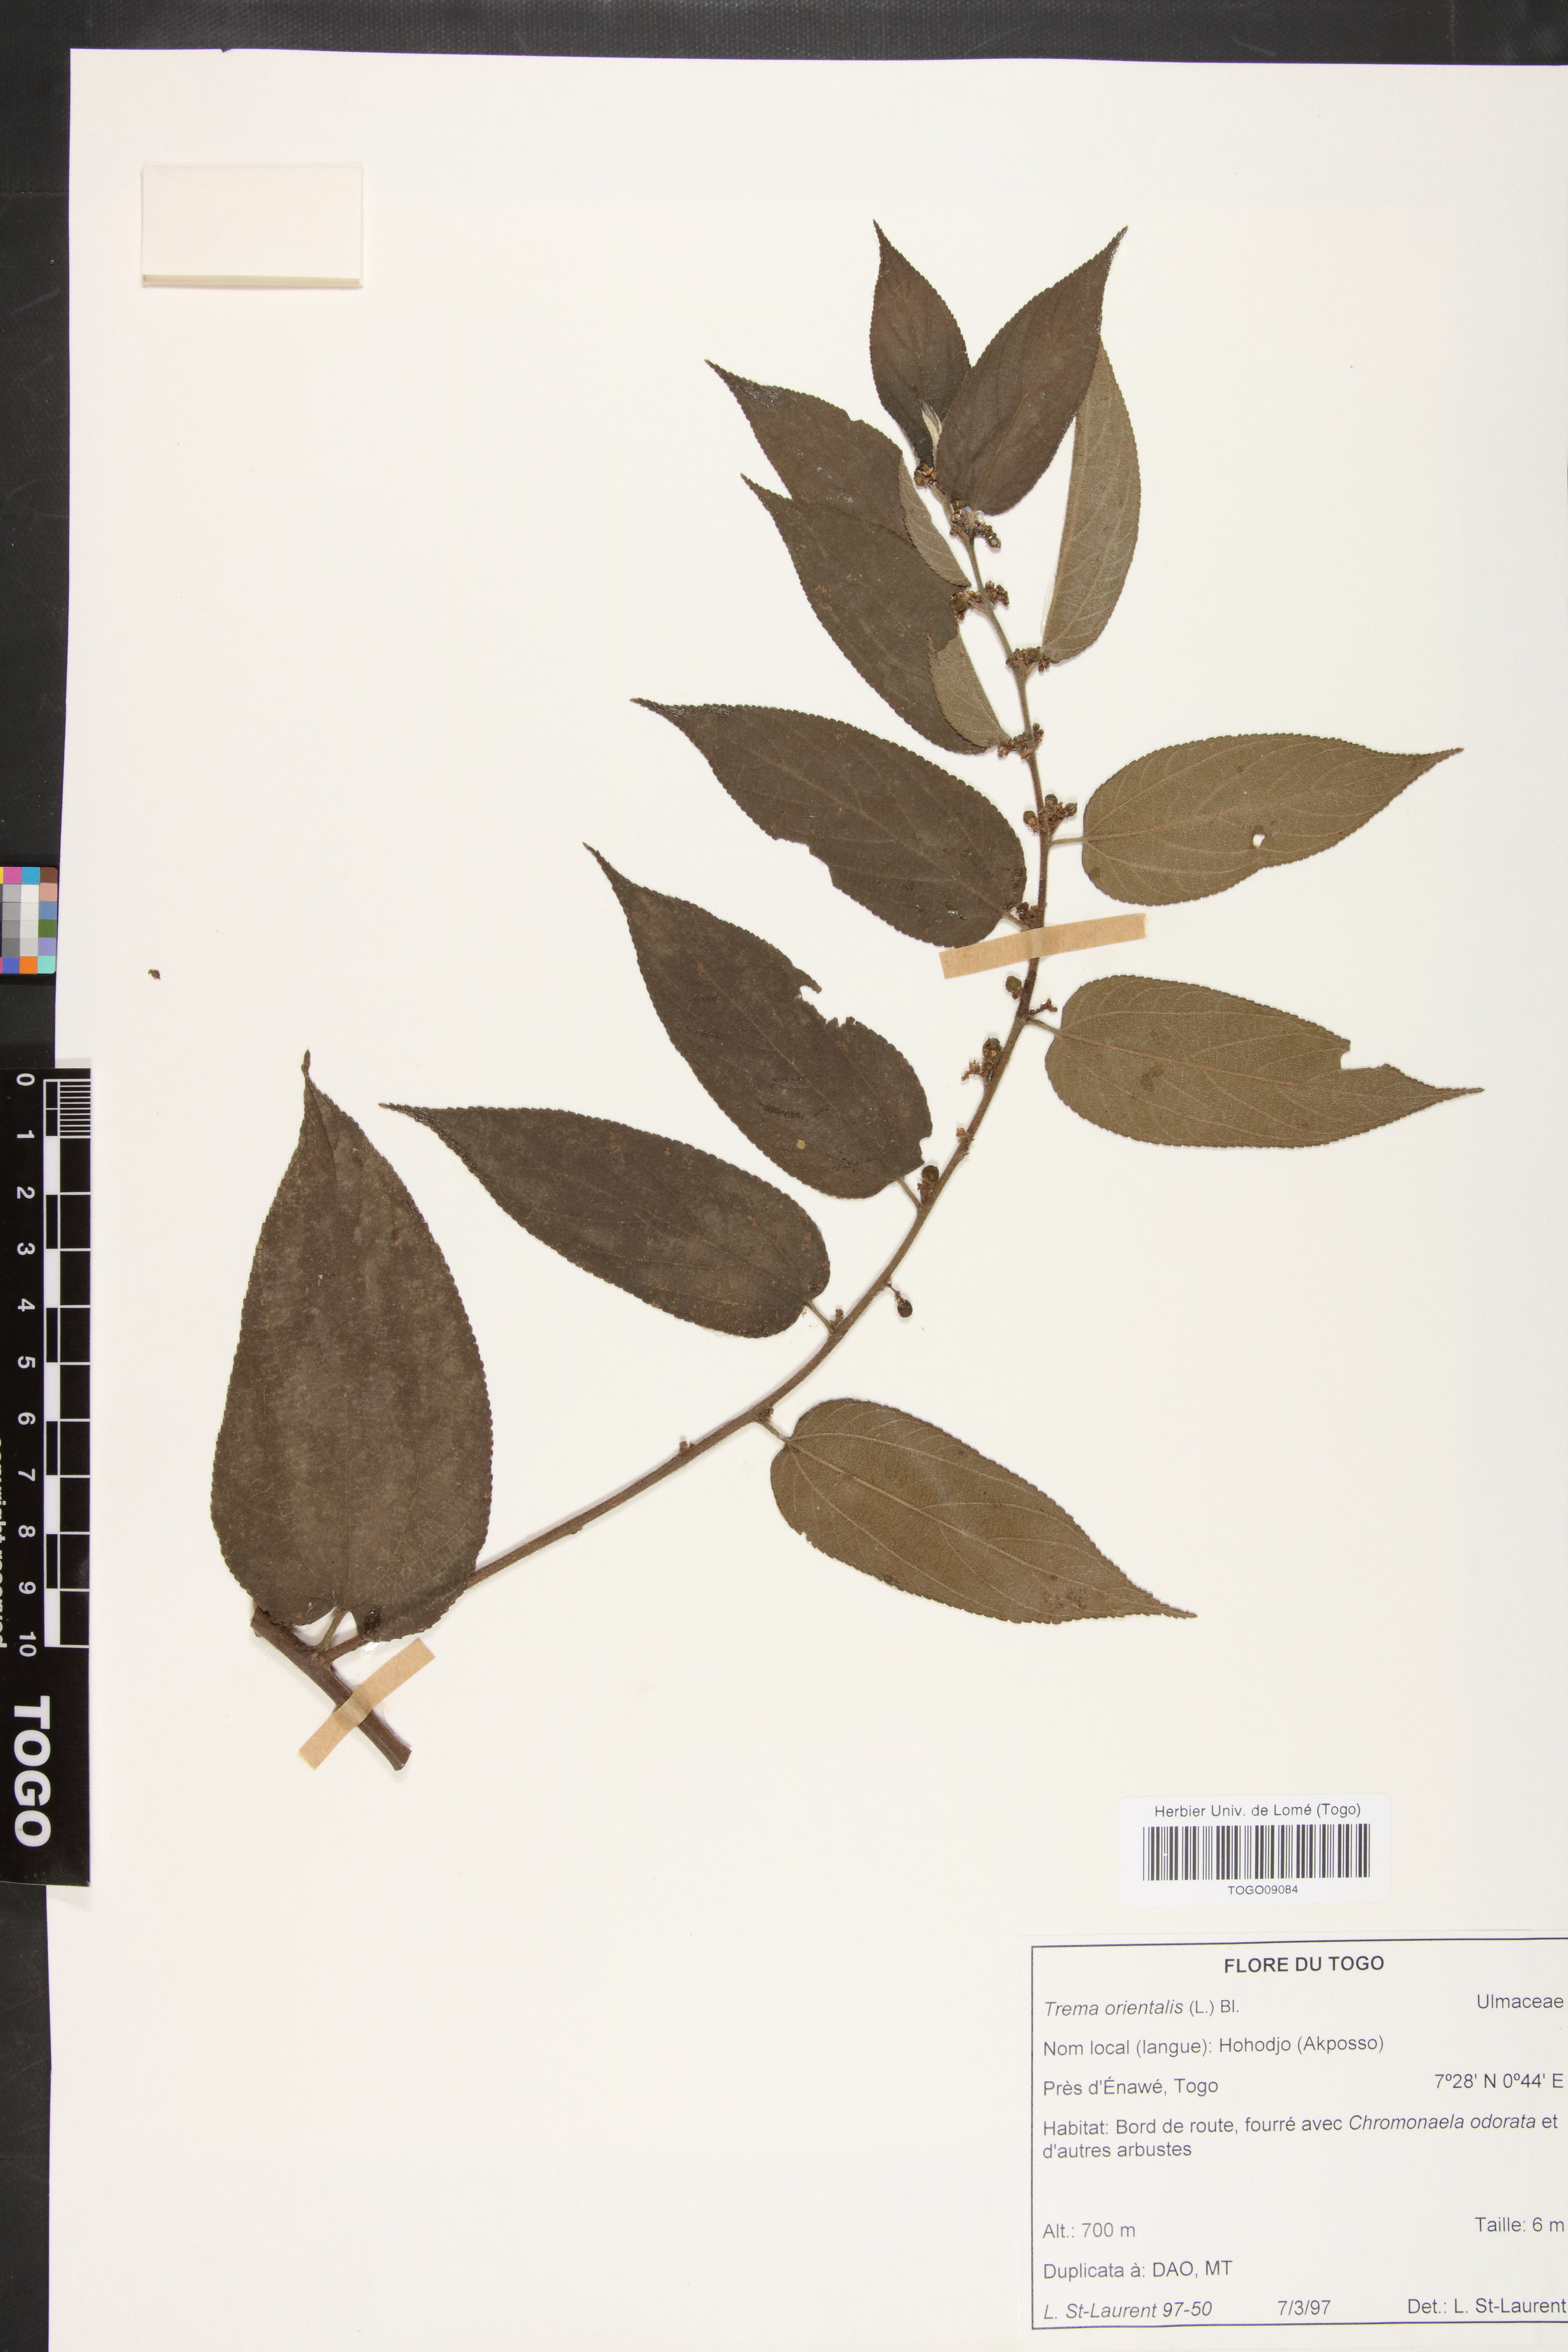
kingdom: Plantae
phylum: Tracheophyta
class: Magnoliopsida
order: Rosales
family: Cannabaceae
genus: Trema
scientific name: Trema orientale
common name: Indian charcoal tree
